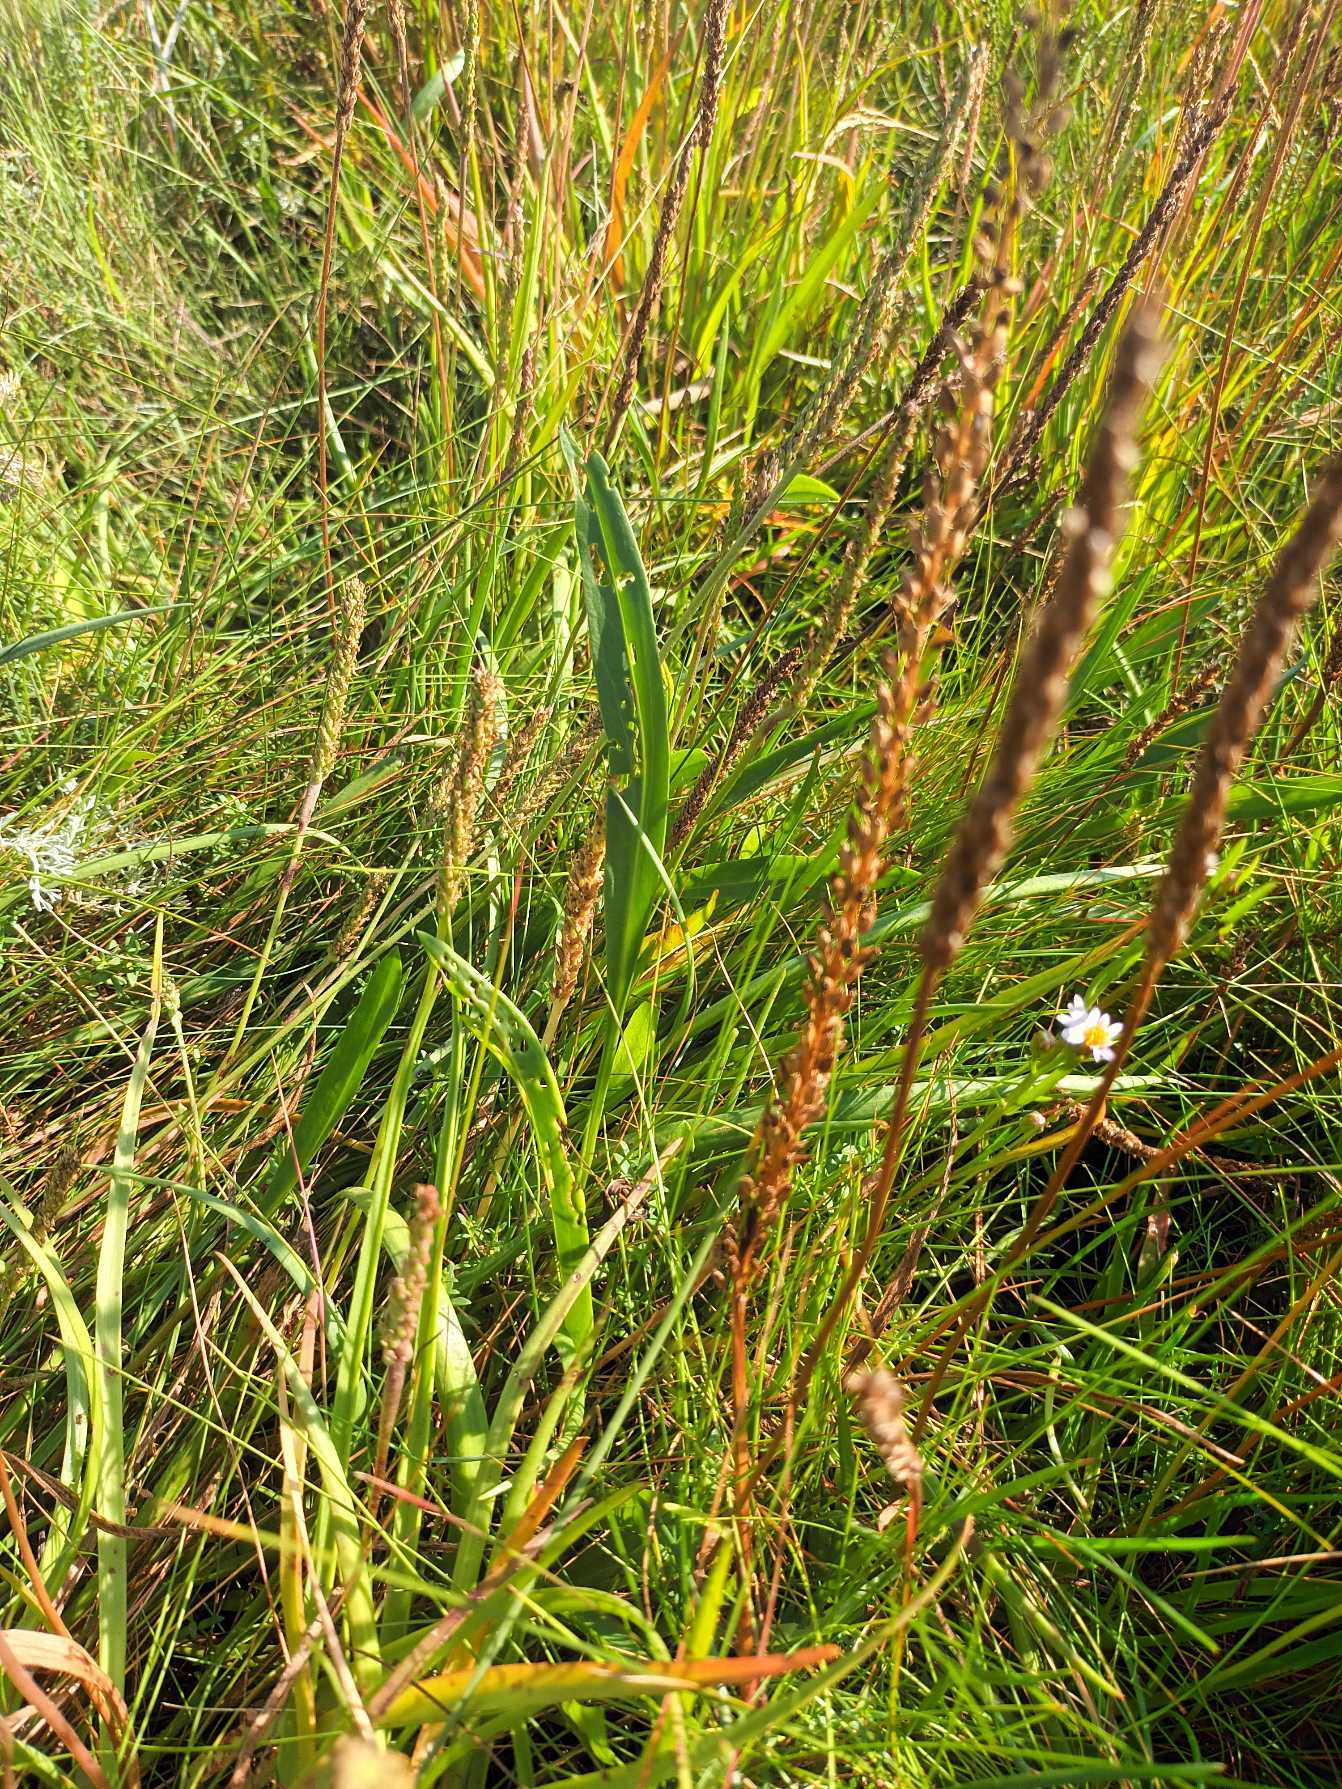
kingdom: Plantae
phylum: Tracheophyta
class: Liliopsida
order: Alismatales
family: Juncaginaceae
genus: Triglochin
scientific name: Triglochin maritima
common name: Strand-trehage
